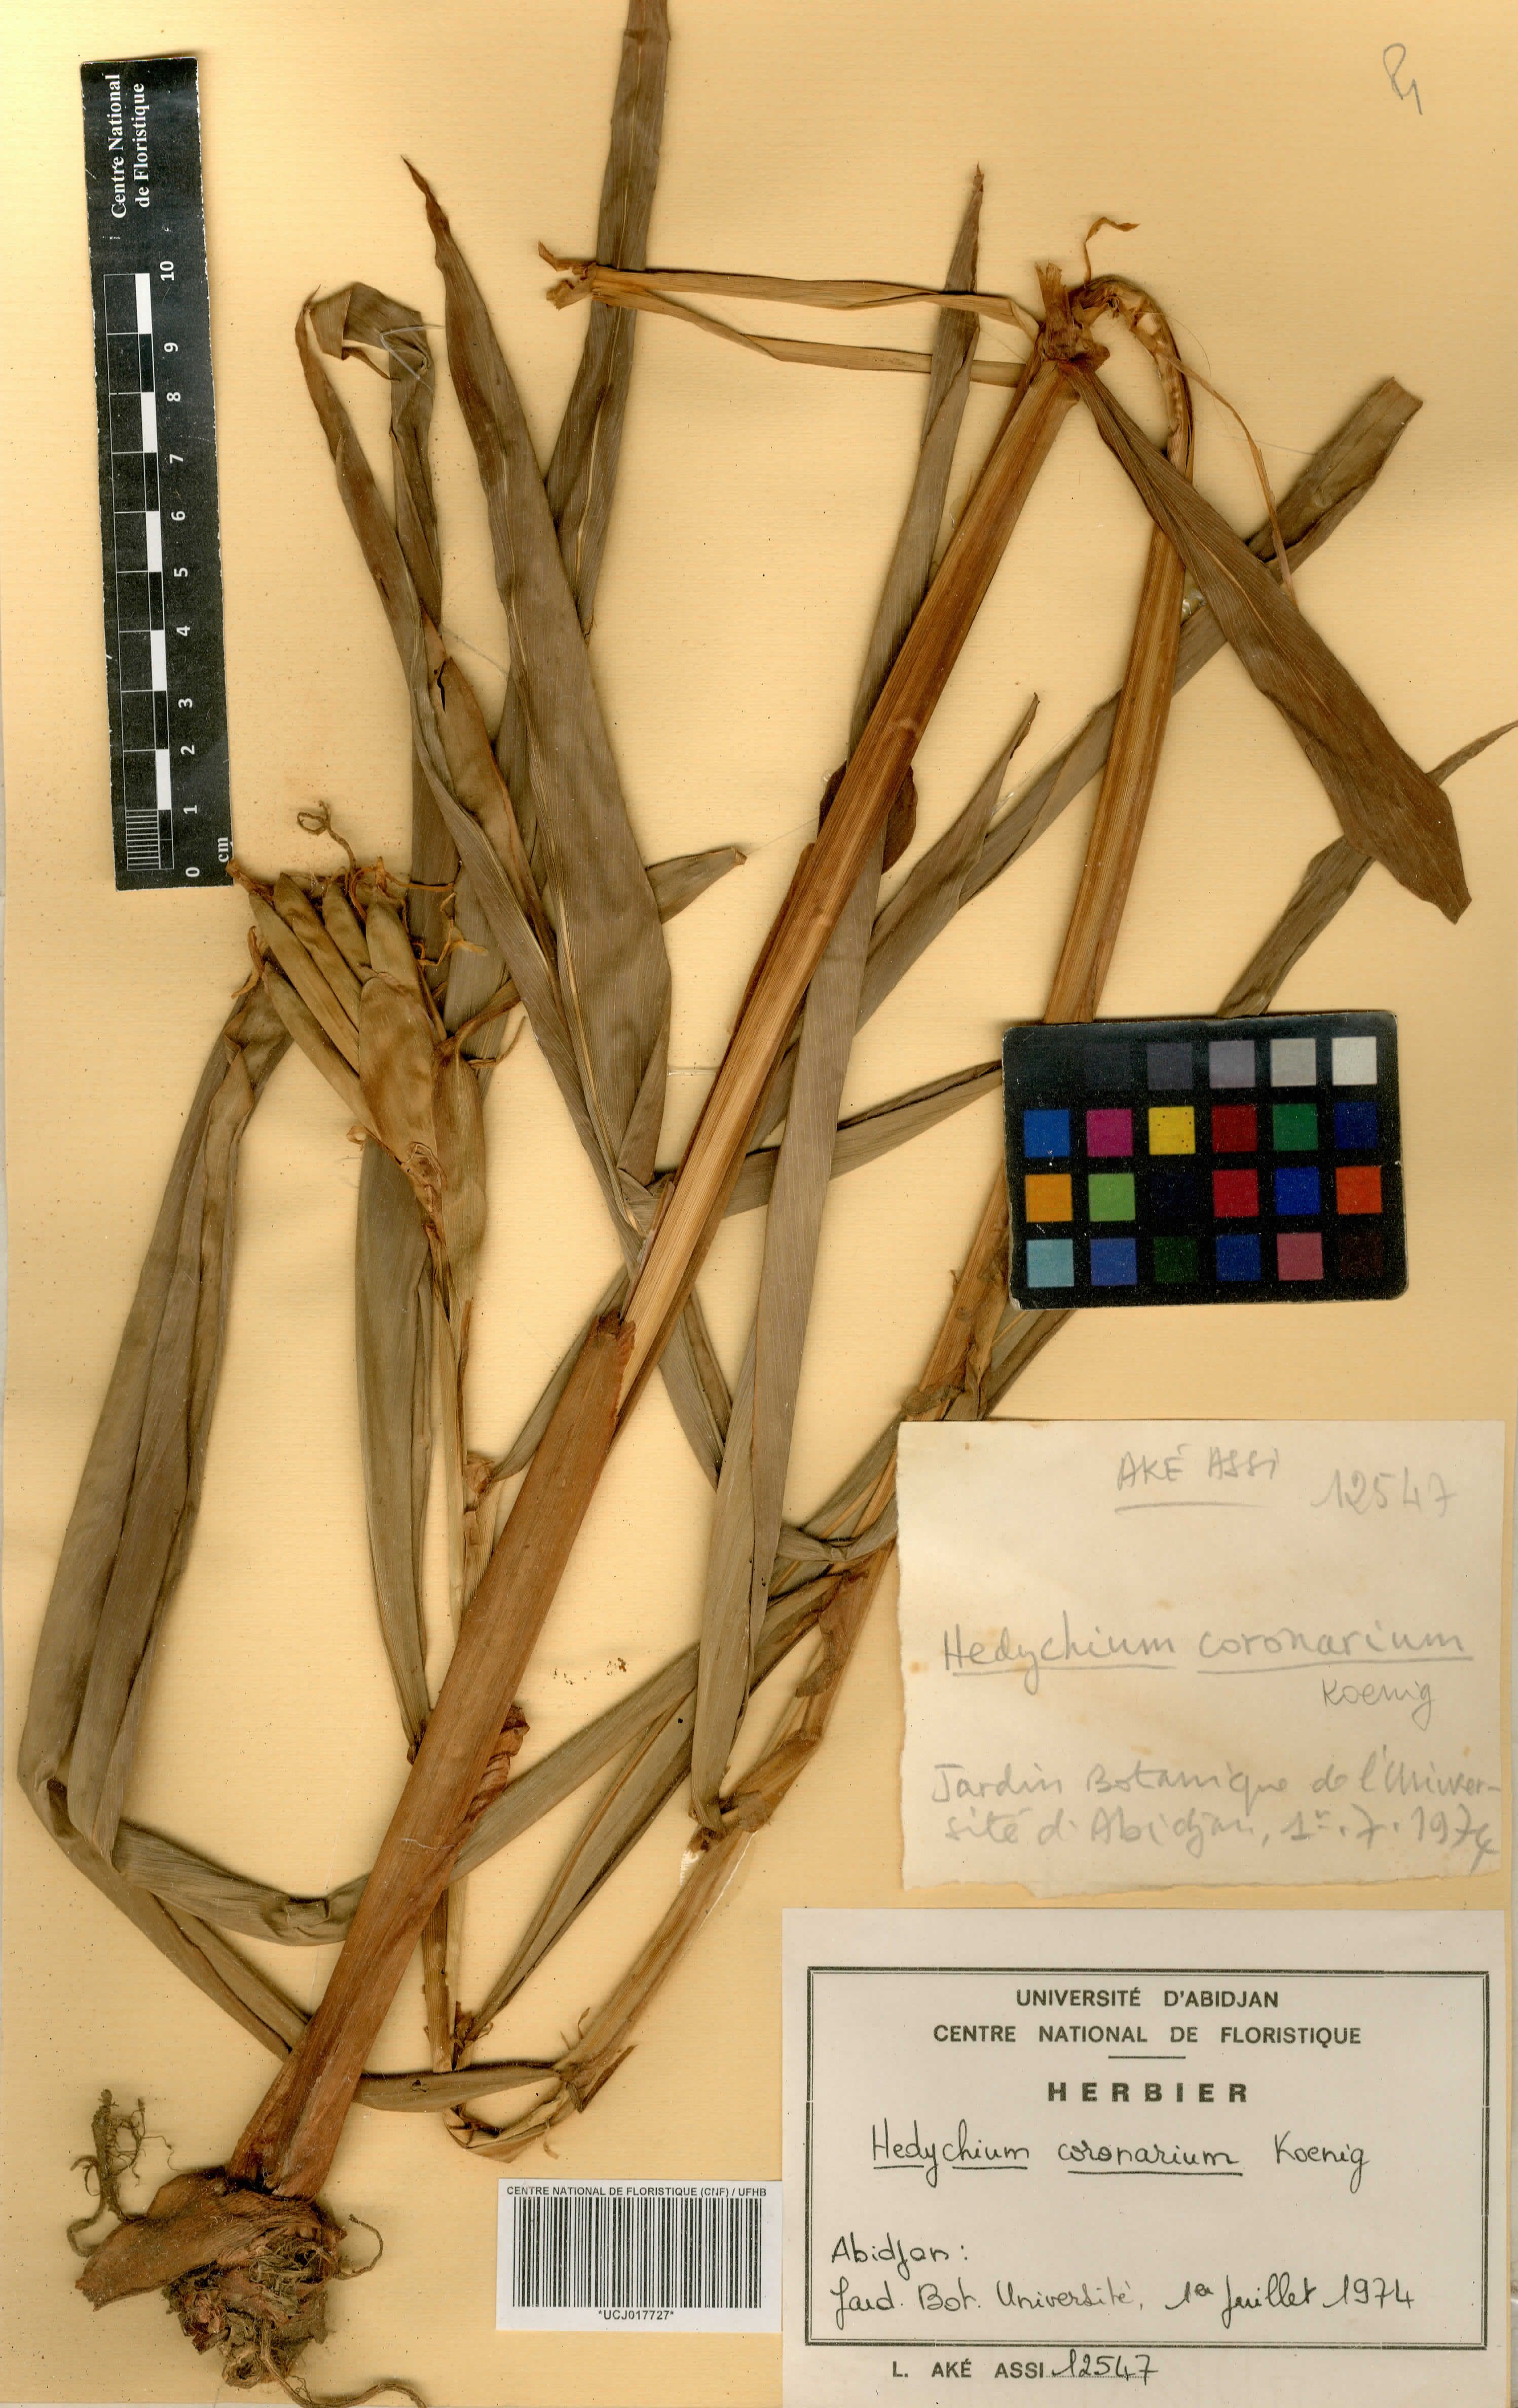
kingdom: Plantae
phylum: Tracheophyta
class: Liliopsida
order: Zingiberales
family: Zingiberaceae
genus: Hedychium
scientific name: Hedychium coronarium
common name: White garland-lily
